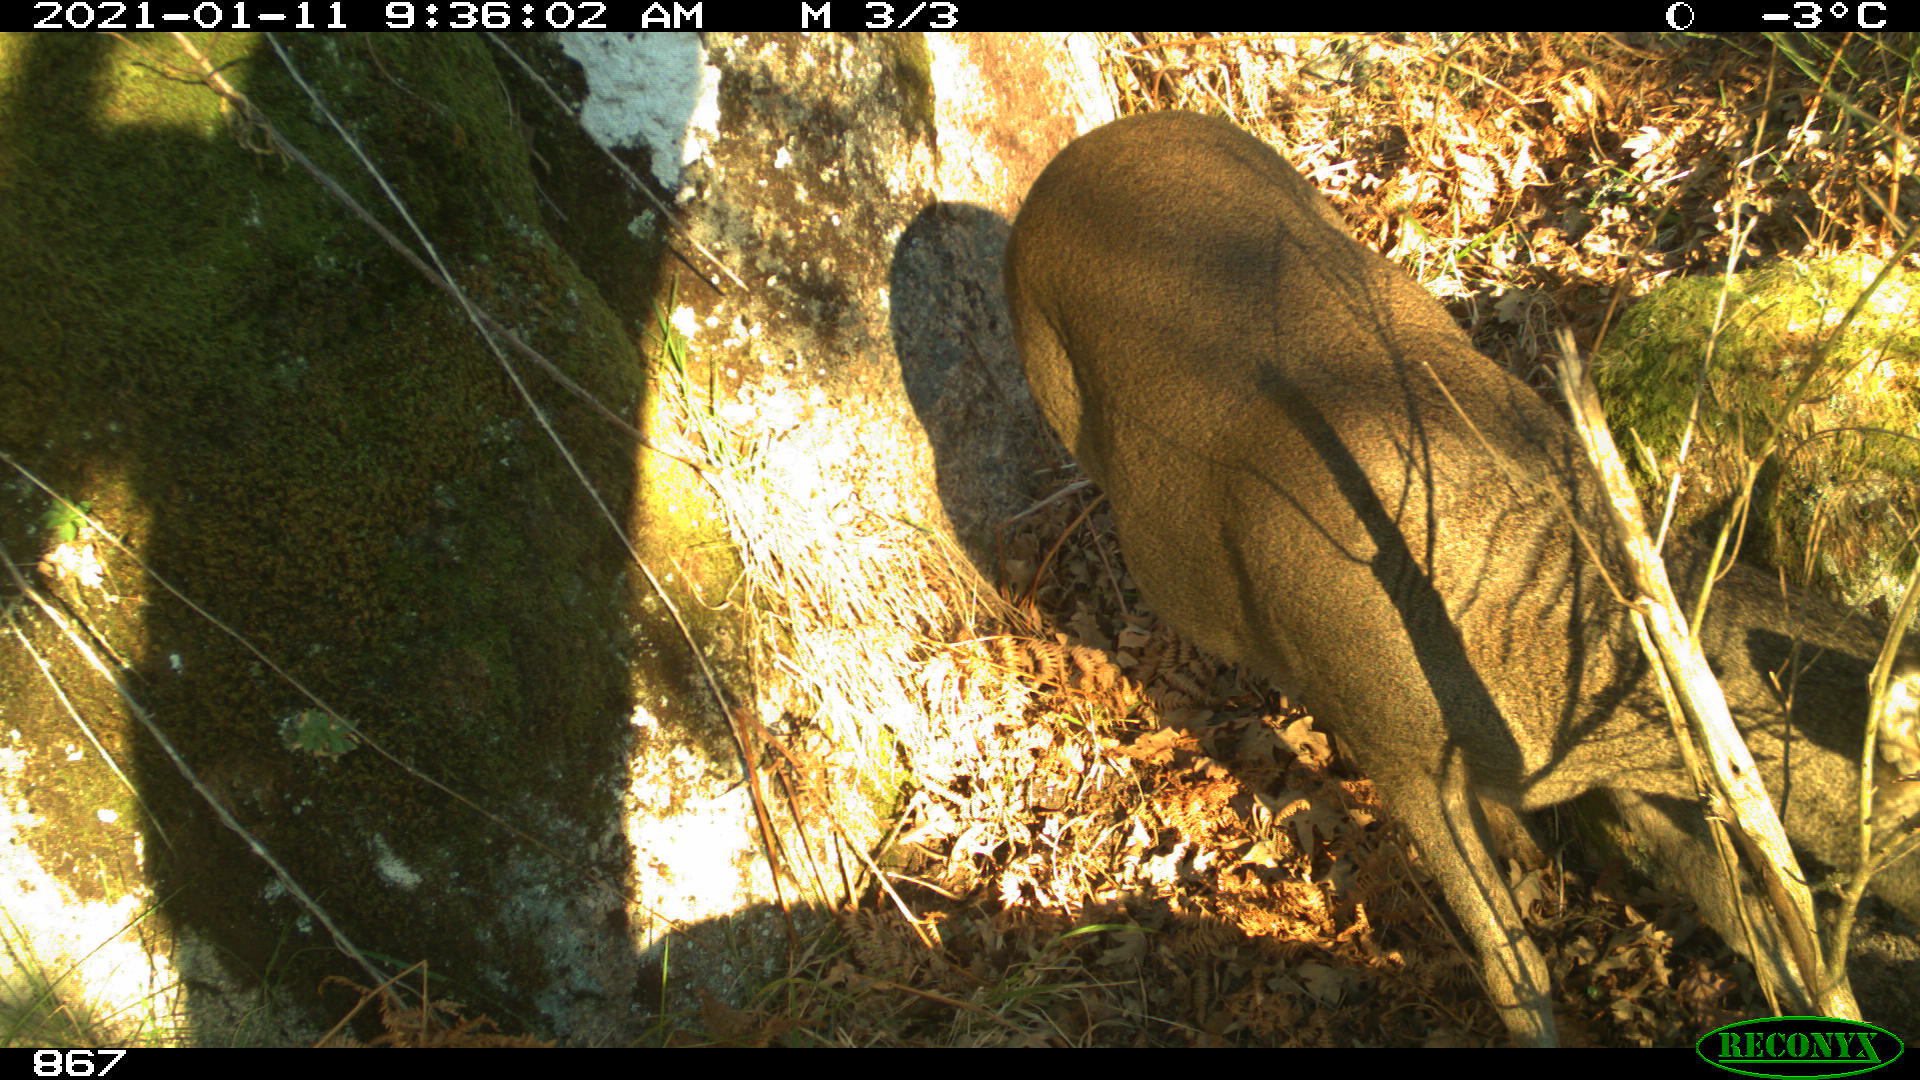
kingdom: Animalia
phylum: Chordata
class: Mammalia
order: Artiodactyla
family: Cervidae
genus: Capreolus
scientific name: Capreolus capreolus
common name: Western roe deer
